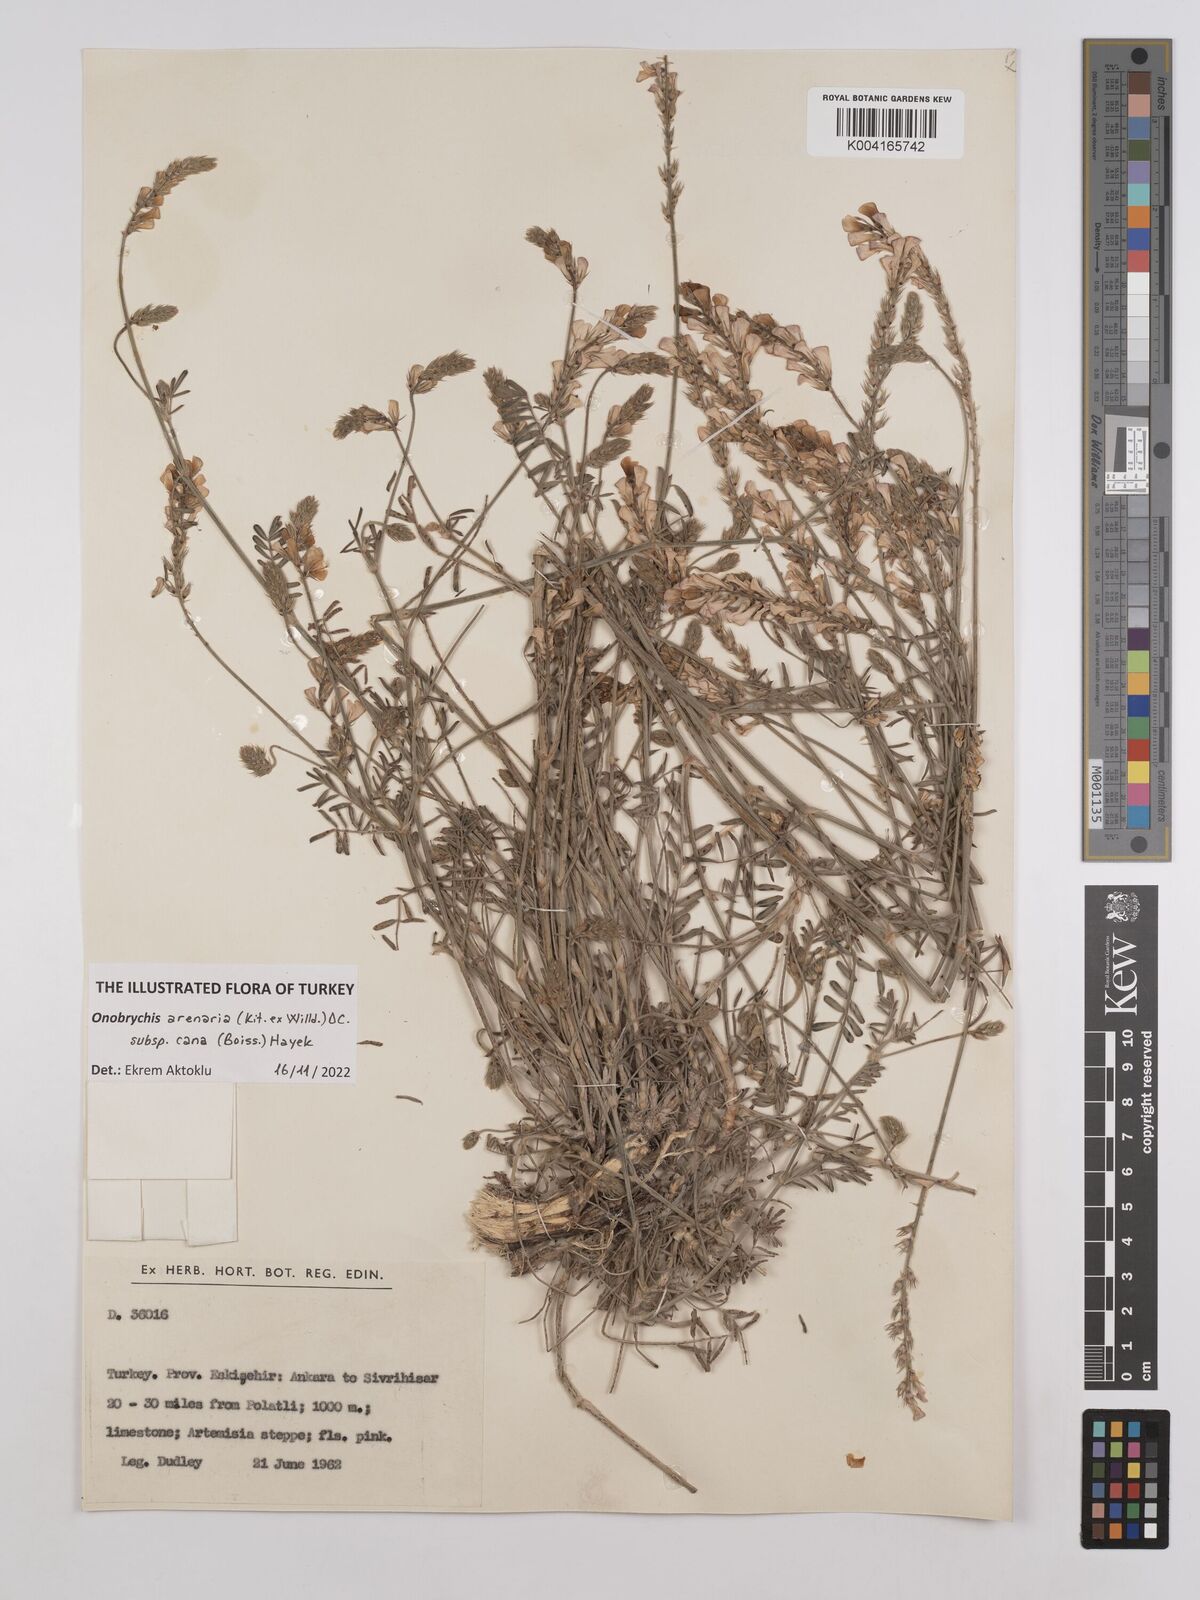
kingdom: Plantae
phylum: Tracheophyta
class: Magnoliopsida
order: Fabales
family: Fabaceae
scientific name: Fabaceae
